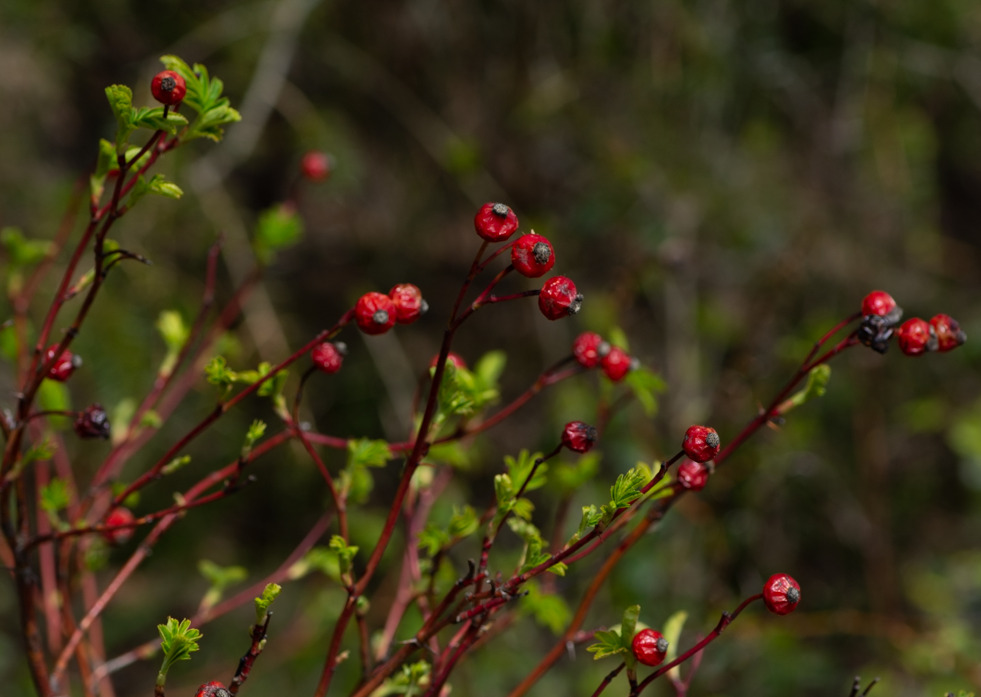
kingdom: Plantae
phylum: Tracheophyta
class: Magnoliopsida
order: Rosales
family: Rosaceae
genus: Rosa
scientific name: Rosa carolina
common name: Glansbladet rose
